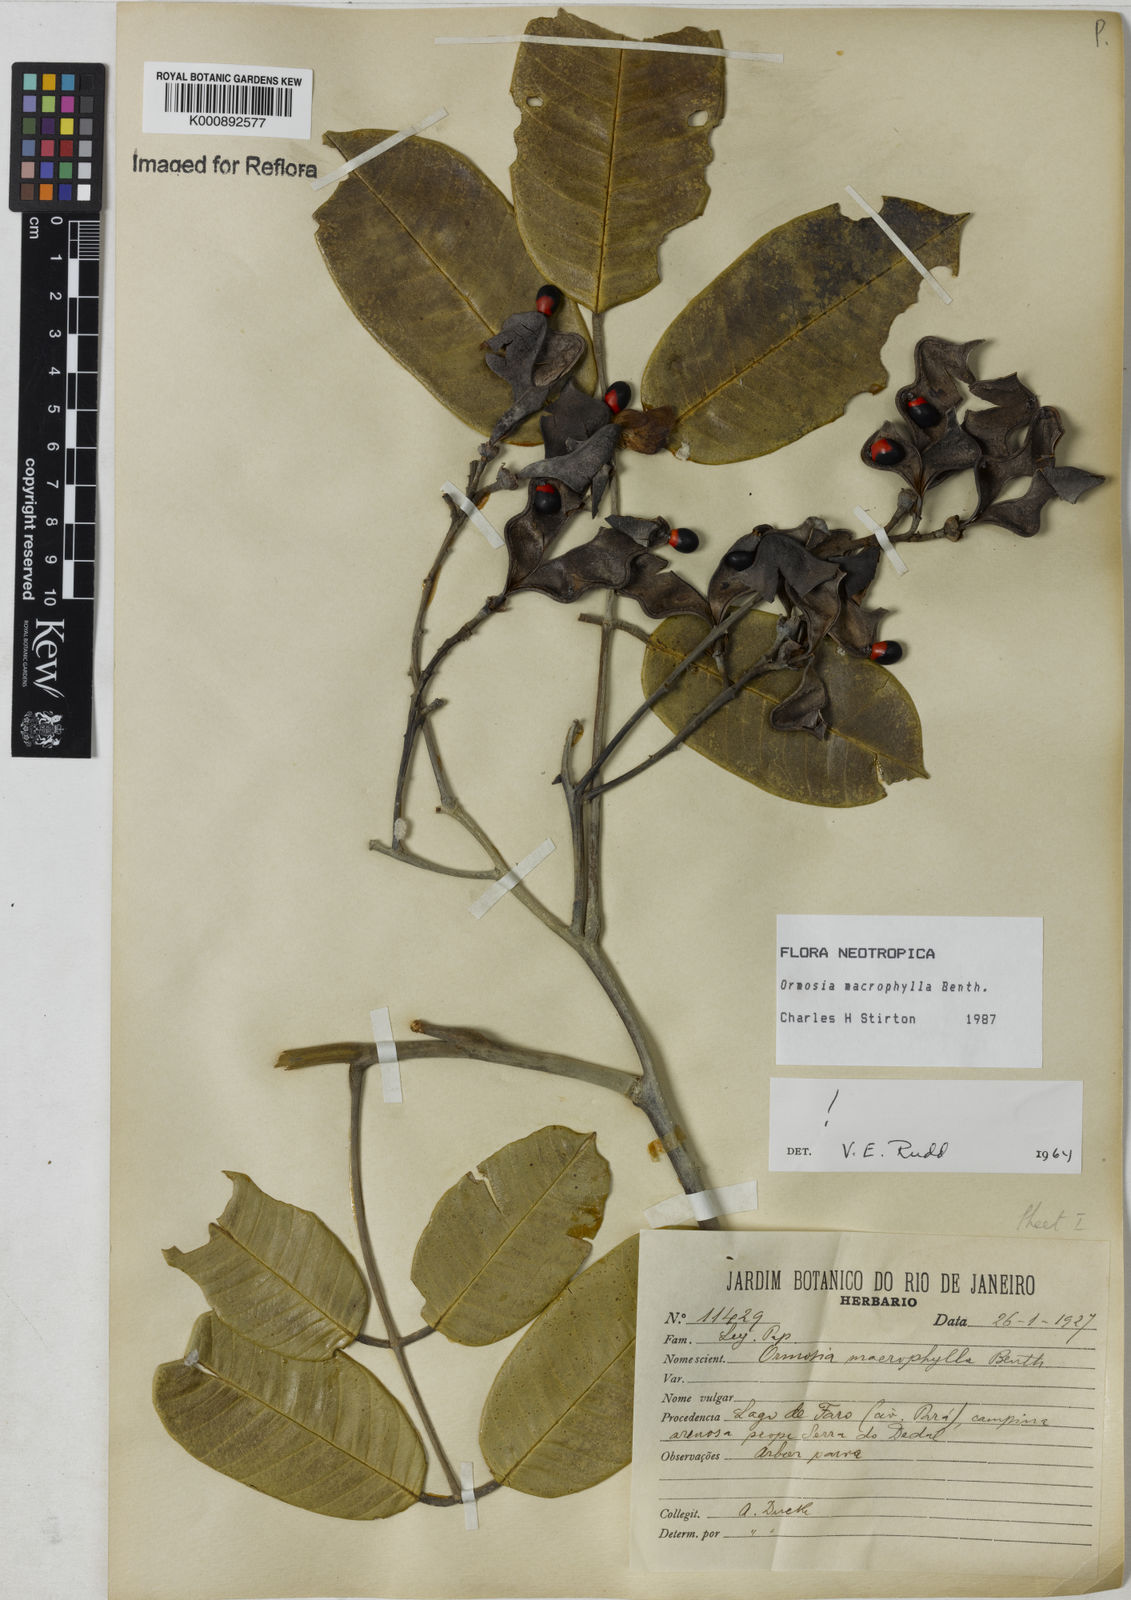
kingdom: Plantae
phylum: Tracheophyta
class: Magnoliopsida
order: Fabales
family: Fabaceae
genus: Ormosia
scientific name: Ormosia macrophylla
